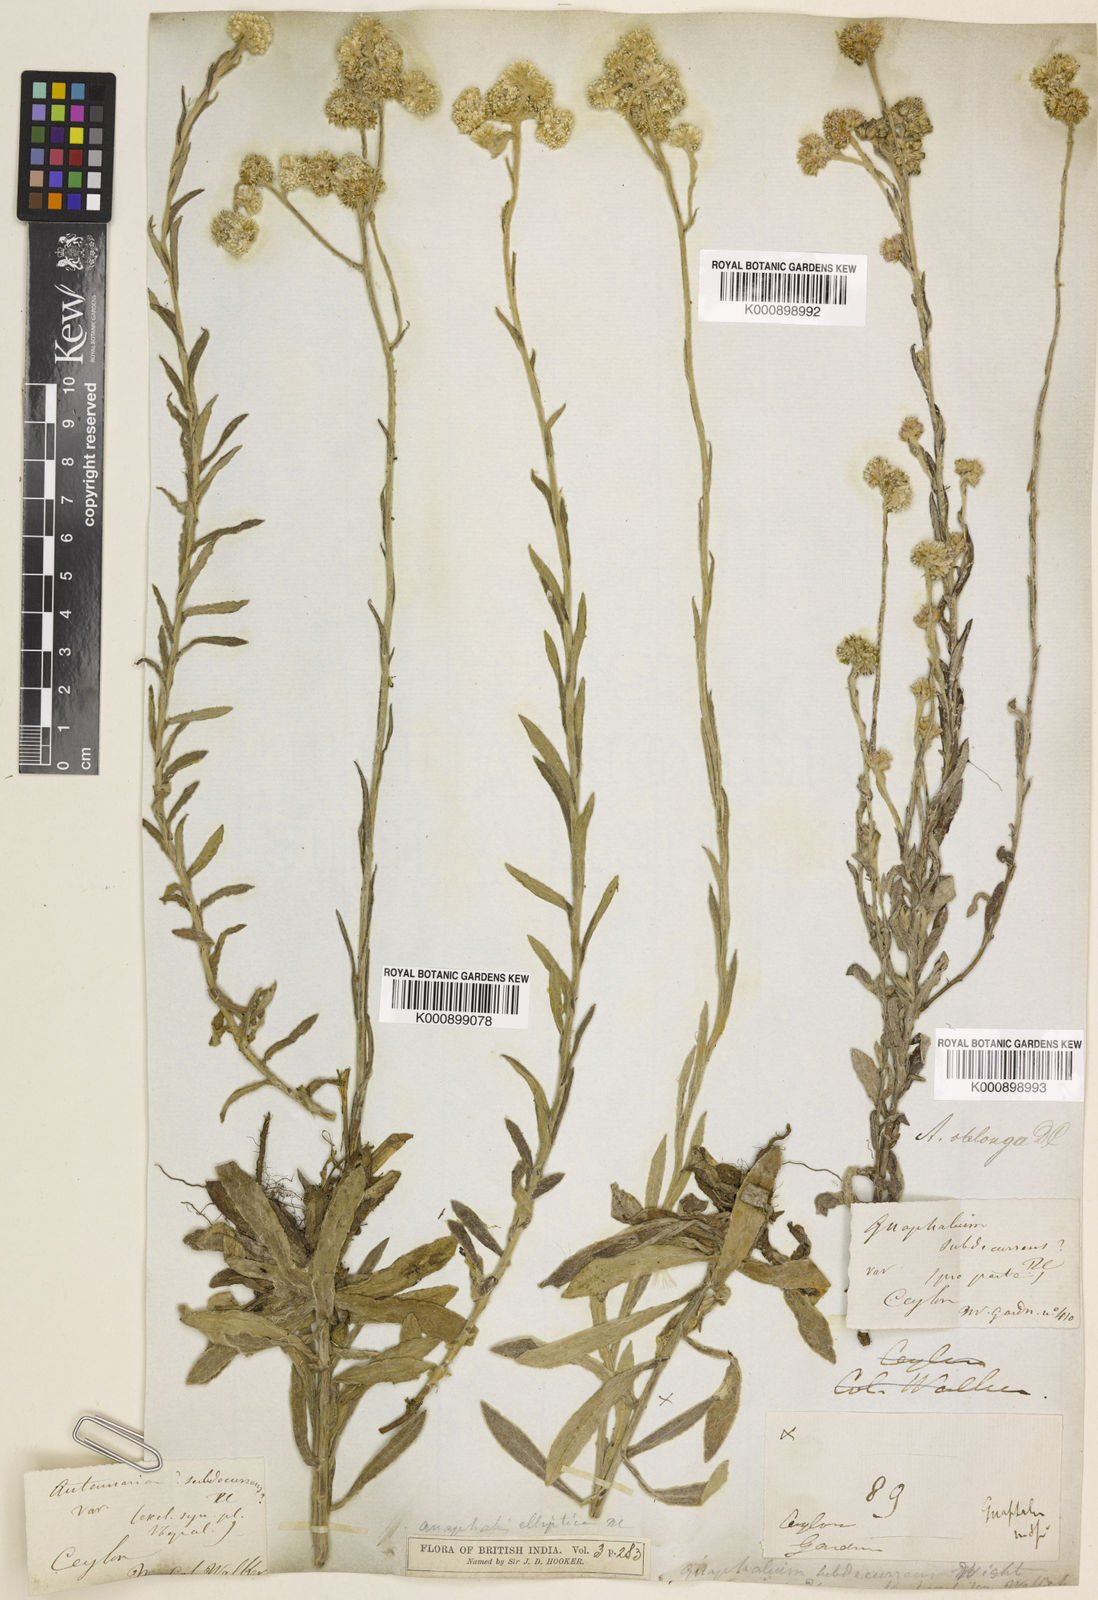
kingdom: Plantae
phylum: Tracheophyta
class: Magnoliopsida
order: Asterales
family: Asteraceae
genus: Anaphalis
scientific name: Anaphalis subdecurrens
